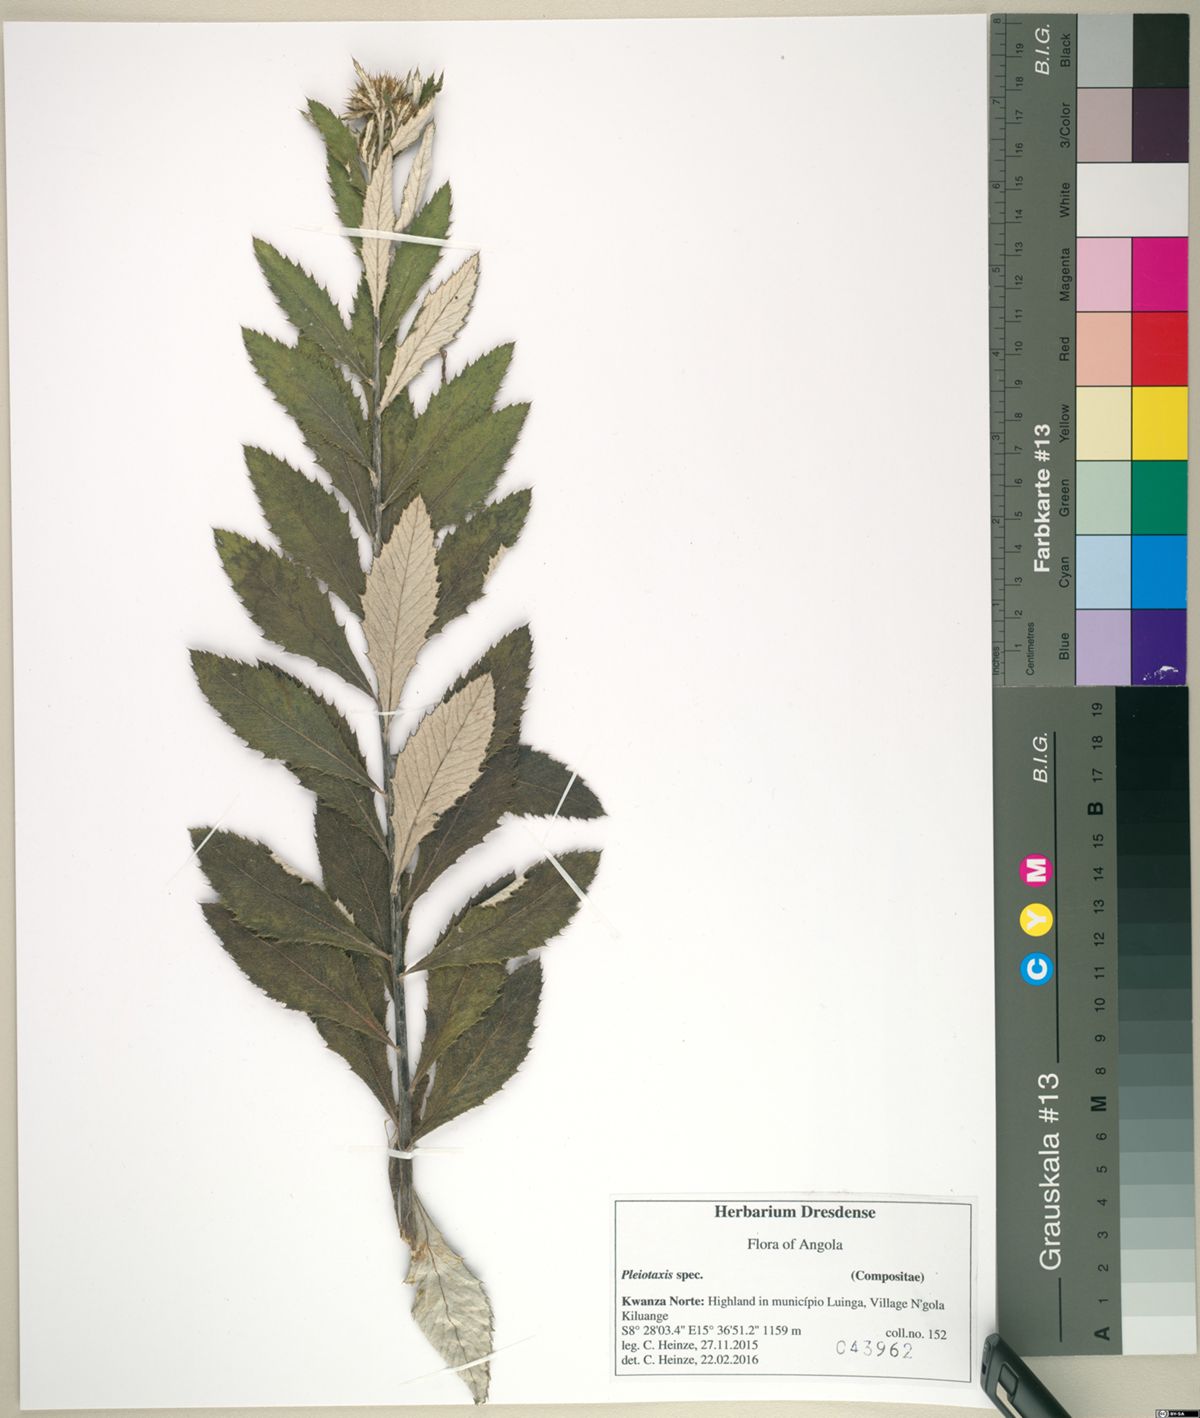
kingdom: Plantae
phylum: Tracheophyta
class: Magnoliopsida
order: Asterales
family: Asteraceae
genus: Berkheya
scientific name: Berkheya angolensis
